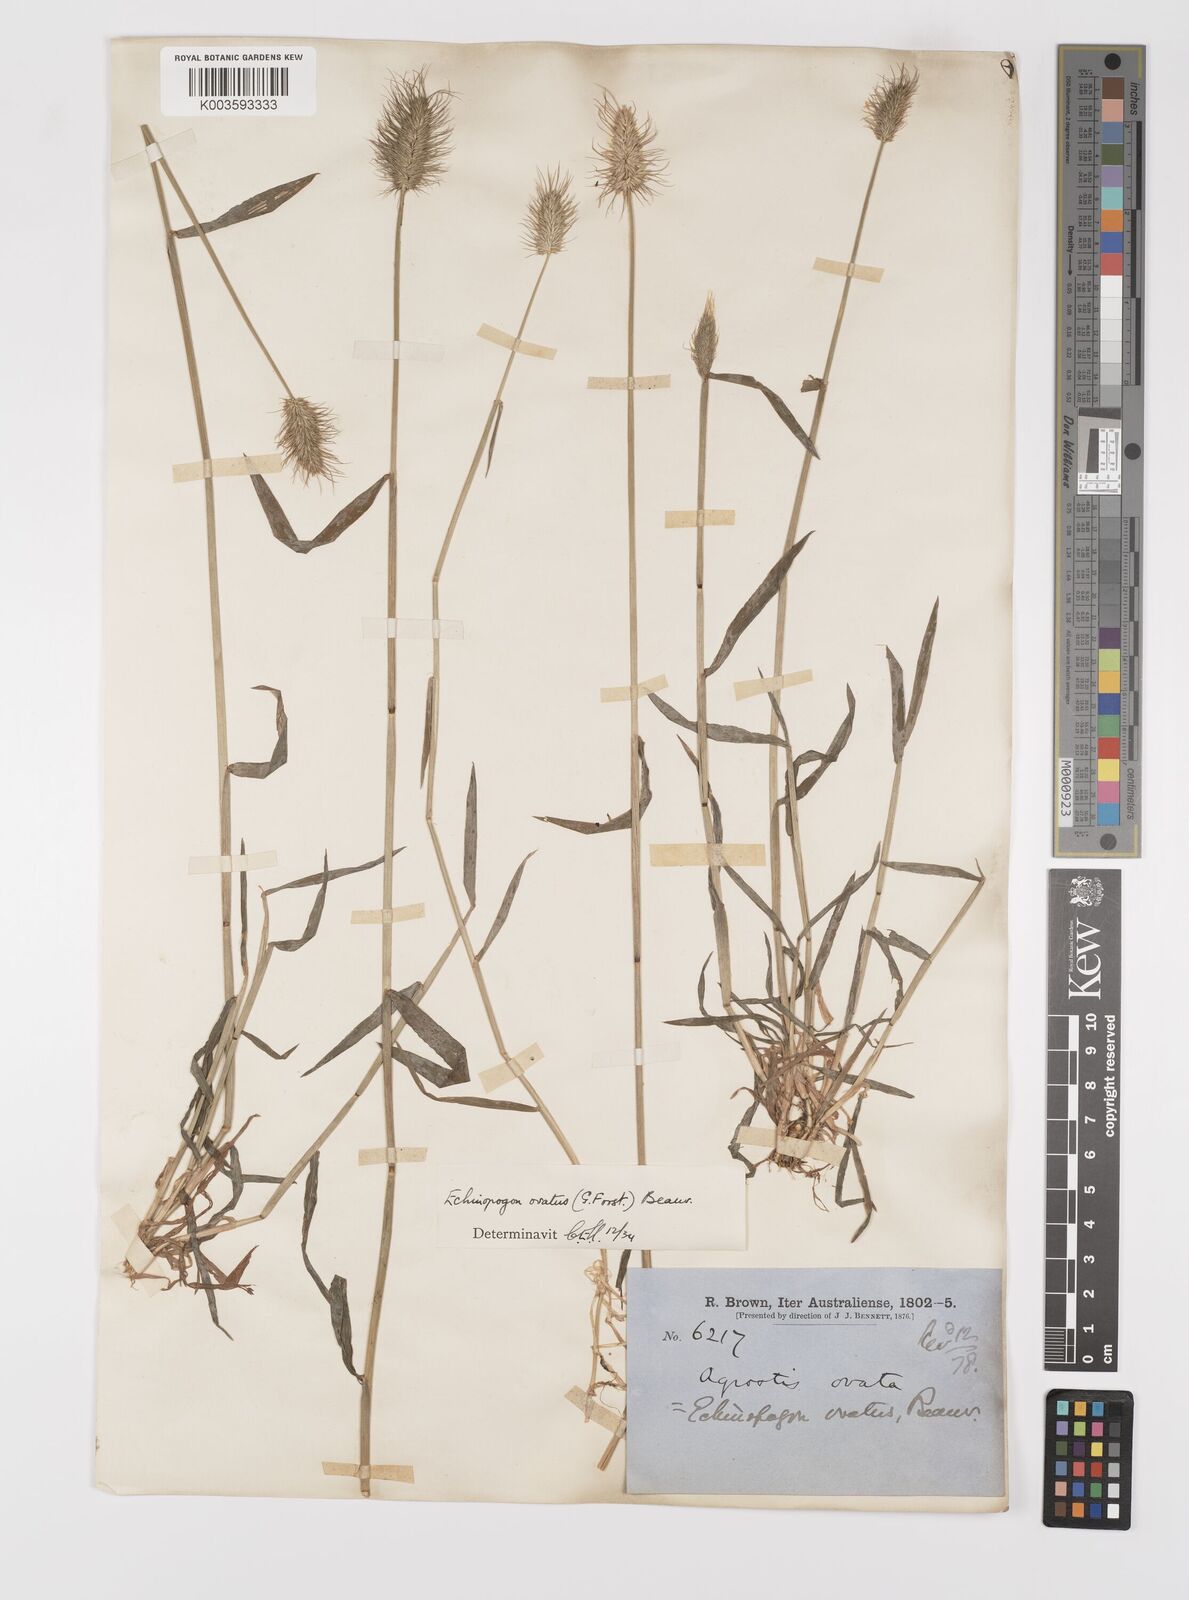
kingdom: Plantae
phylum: Tracheophyta
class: Liliopsida
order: Poales
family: Poaceae
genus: Echinopogon
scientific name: Echinopogon ovatus
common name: Hedgehog-grass
